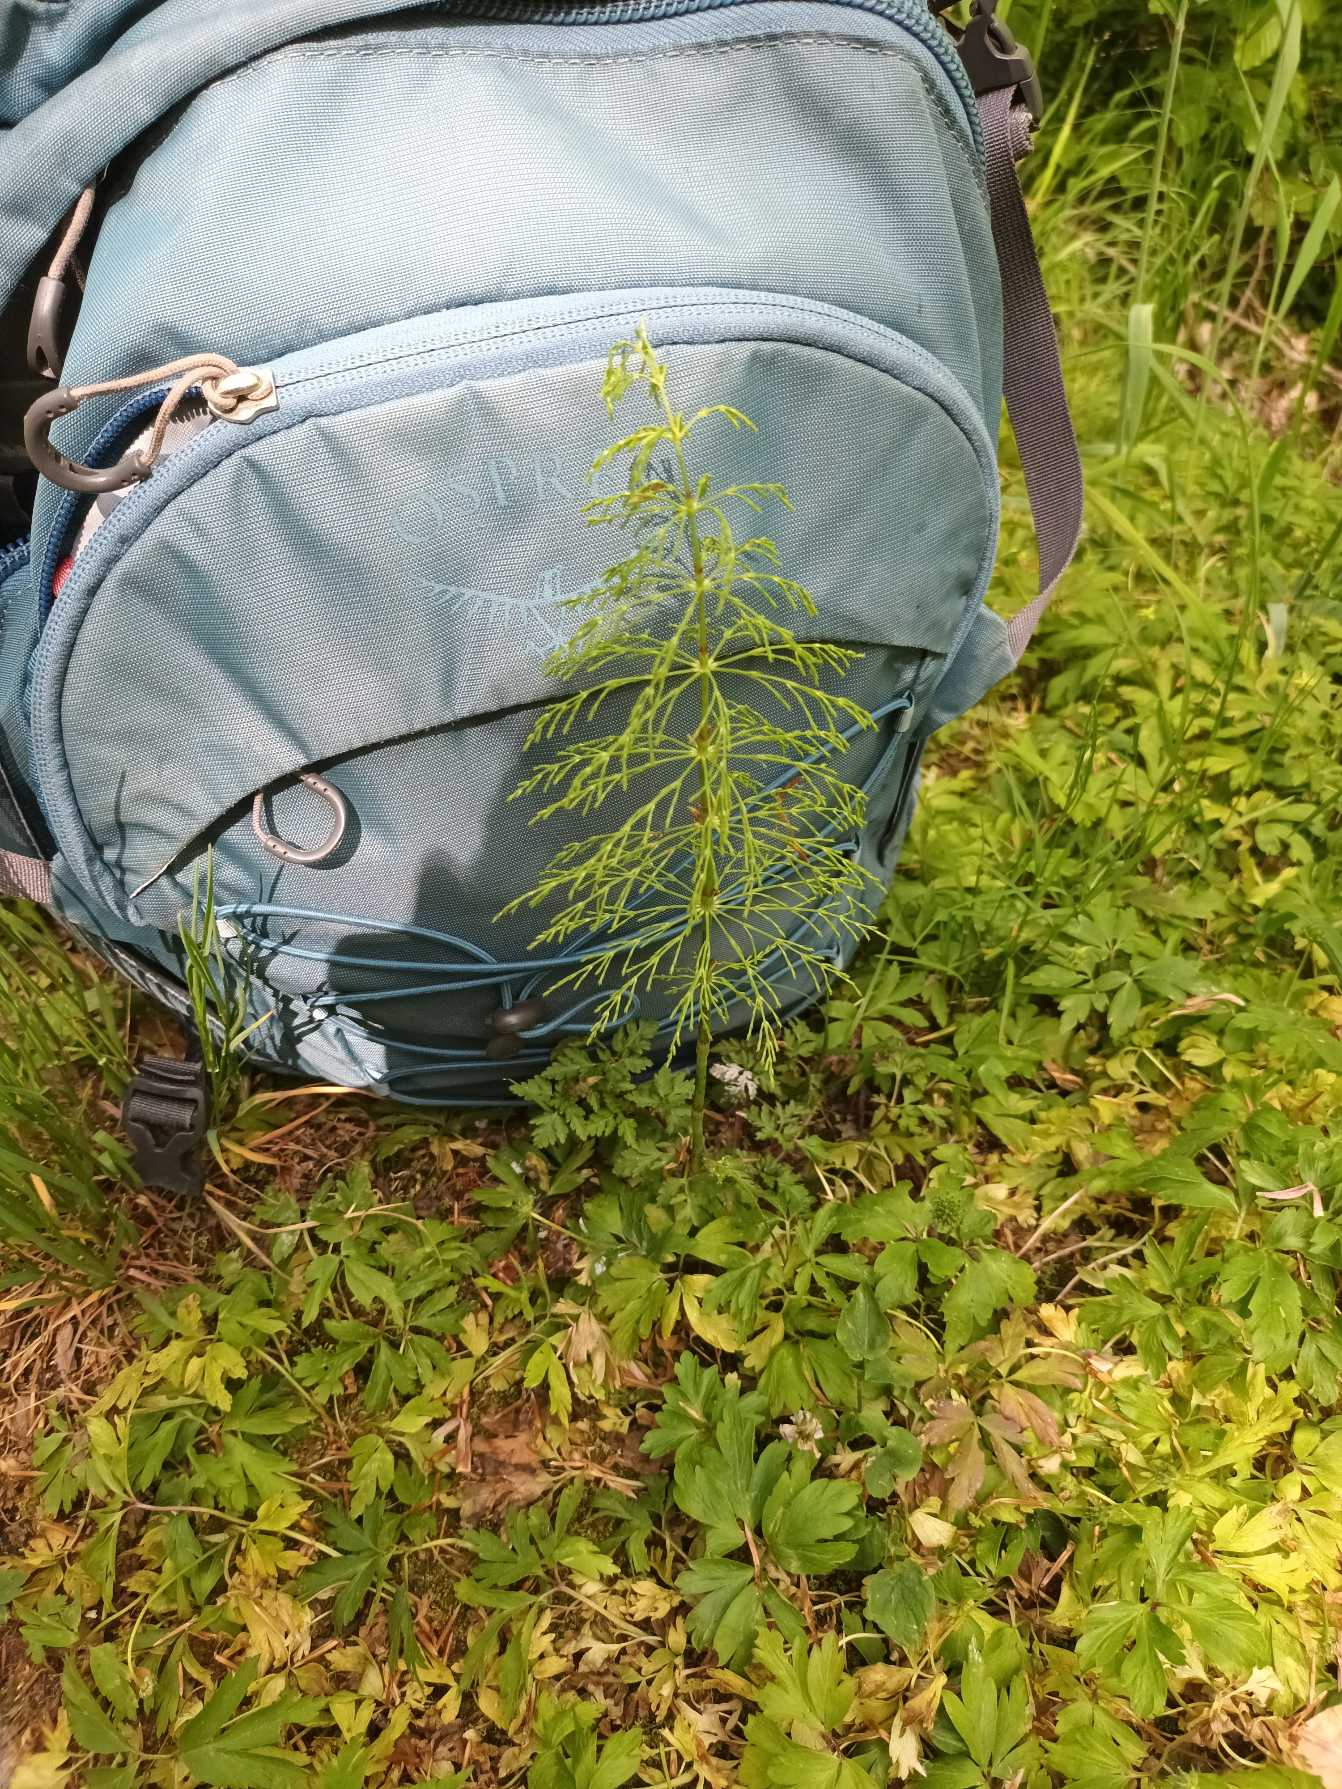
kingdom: Plantae
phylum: Tracheophyta
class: Polypodiopsida
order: Equisetales
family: Equisetaceae
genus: Equisetum
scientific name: Equisetum sylvaticum
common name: Skov-padderok
